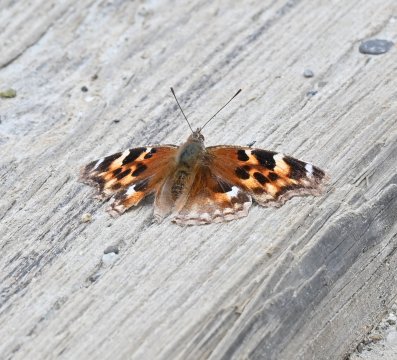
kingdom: Animalia
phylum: Arthropoda
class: Insecta
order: Lepidoptera
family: Nymphalidae
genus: Polygonia
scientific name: Polygonia vaualbum
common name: Compton Tortoiseshell
